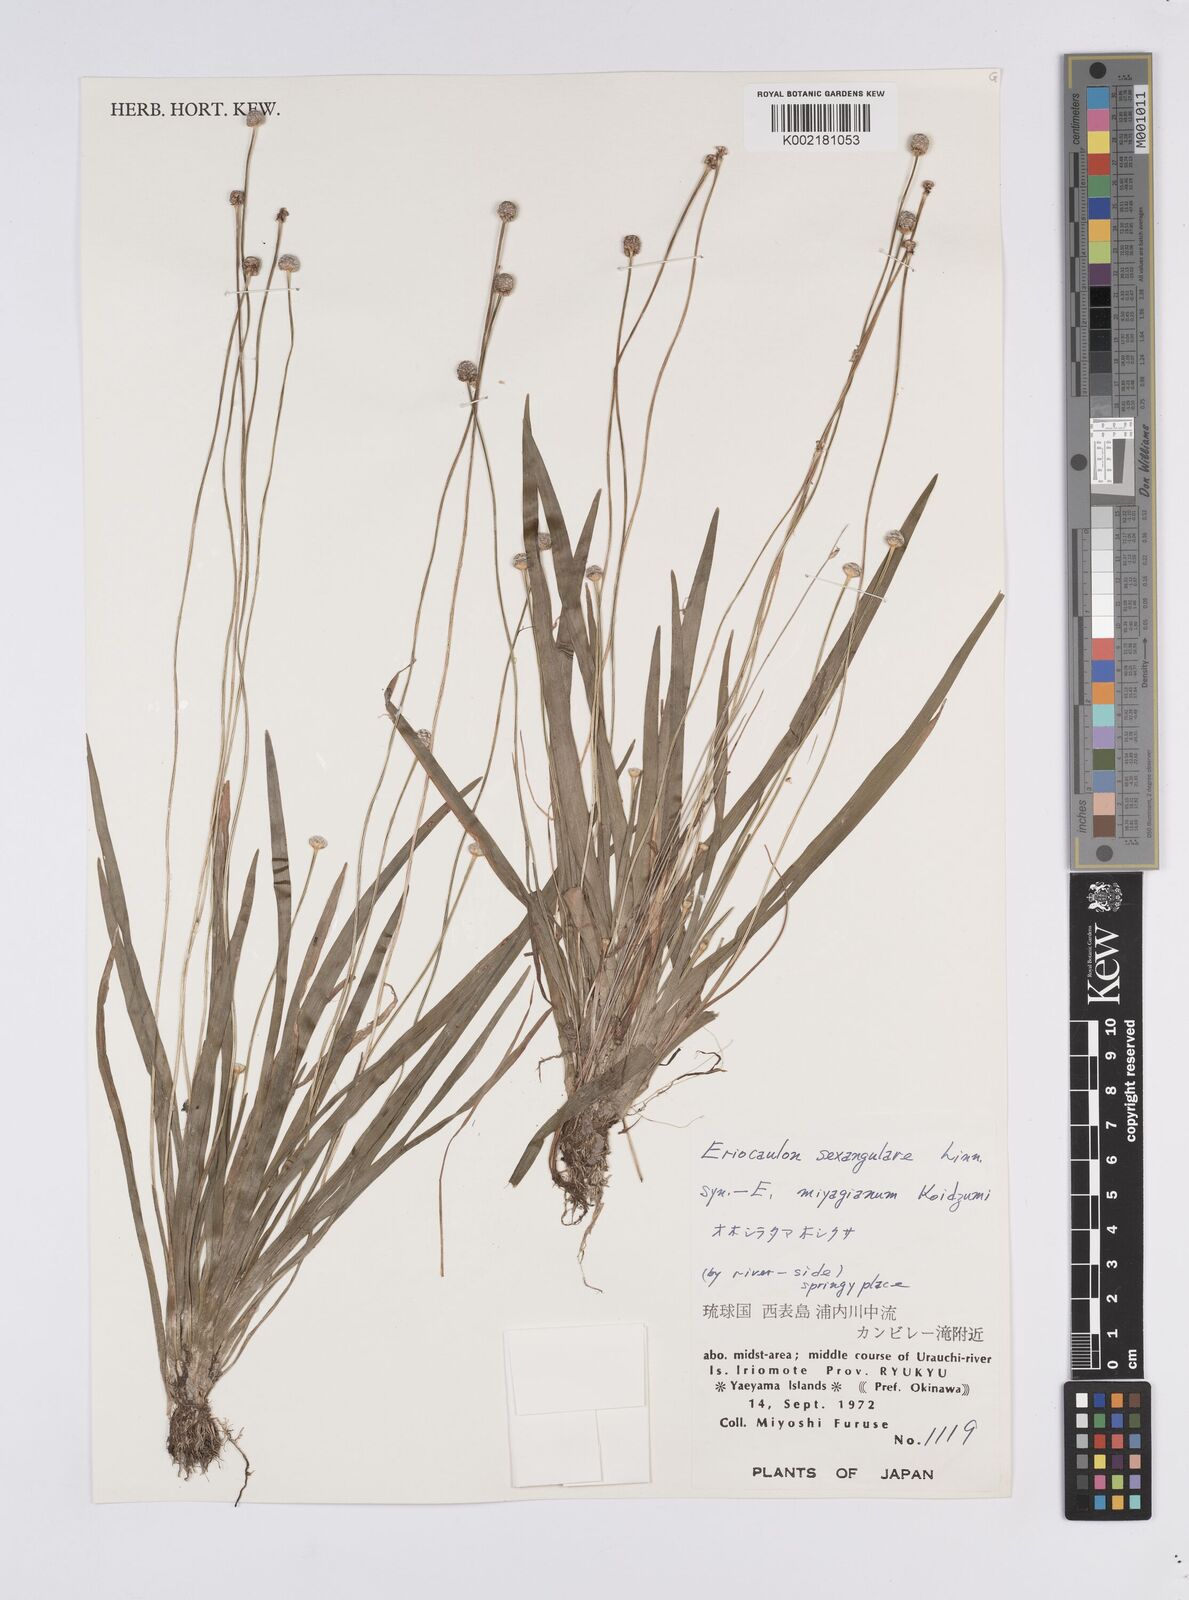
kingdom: Plantae
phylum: Tracheophyta
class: Liliopsida
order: Poales
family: Eriocaulaceae
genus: Eriocaulon
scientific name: Eriocaulon sexangulare
